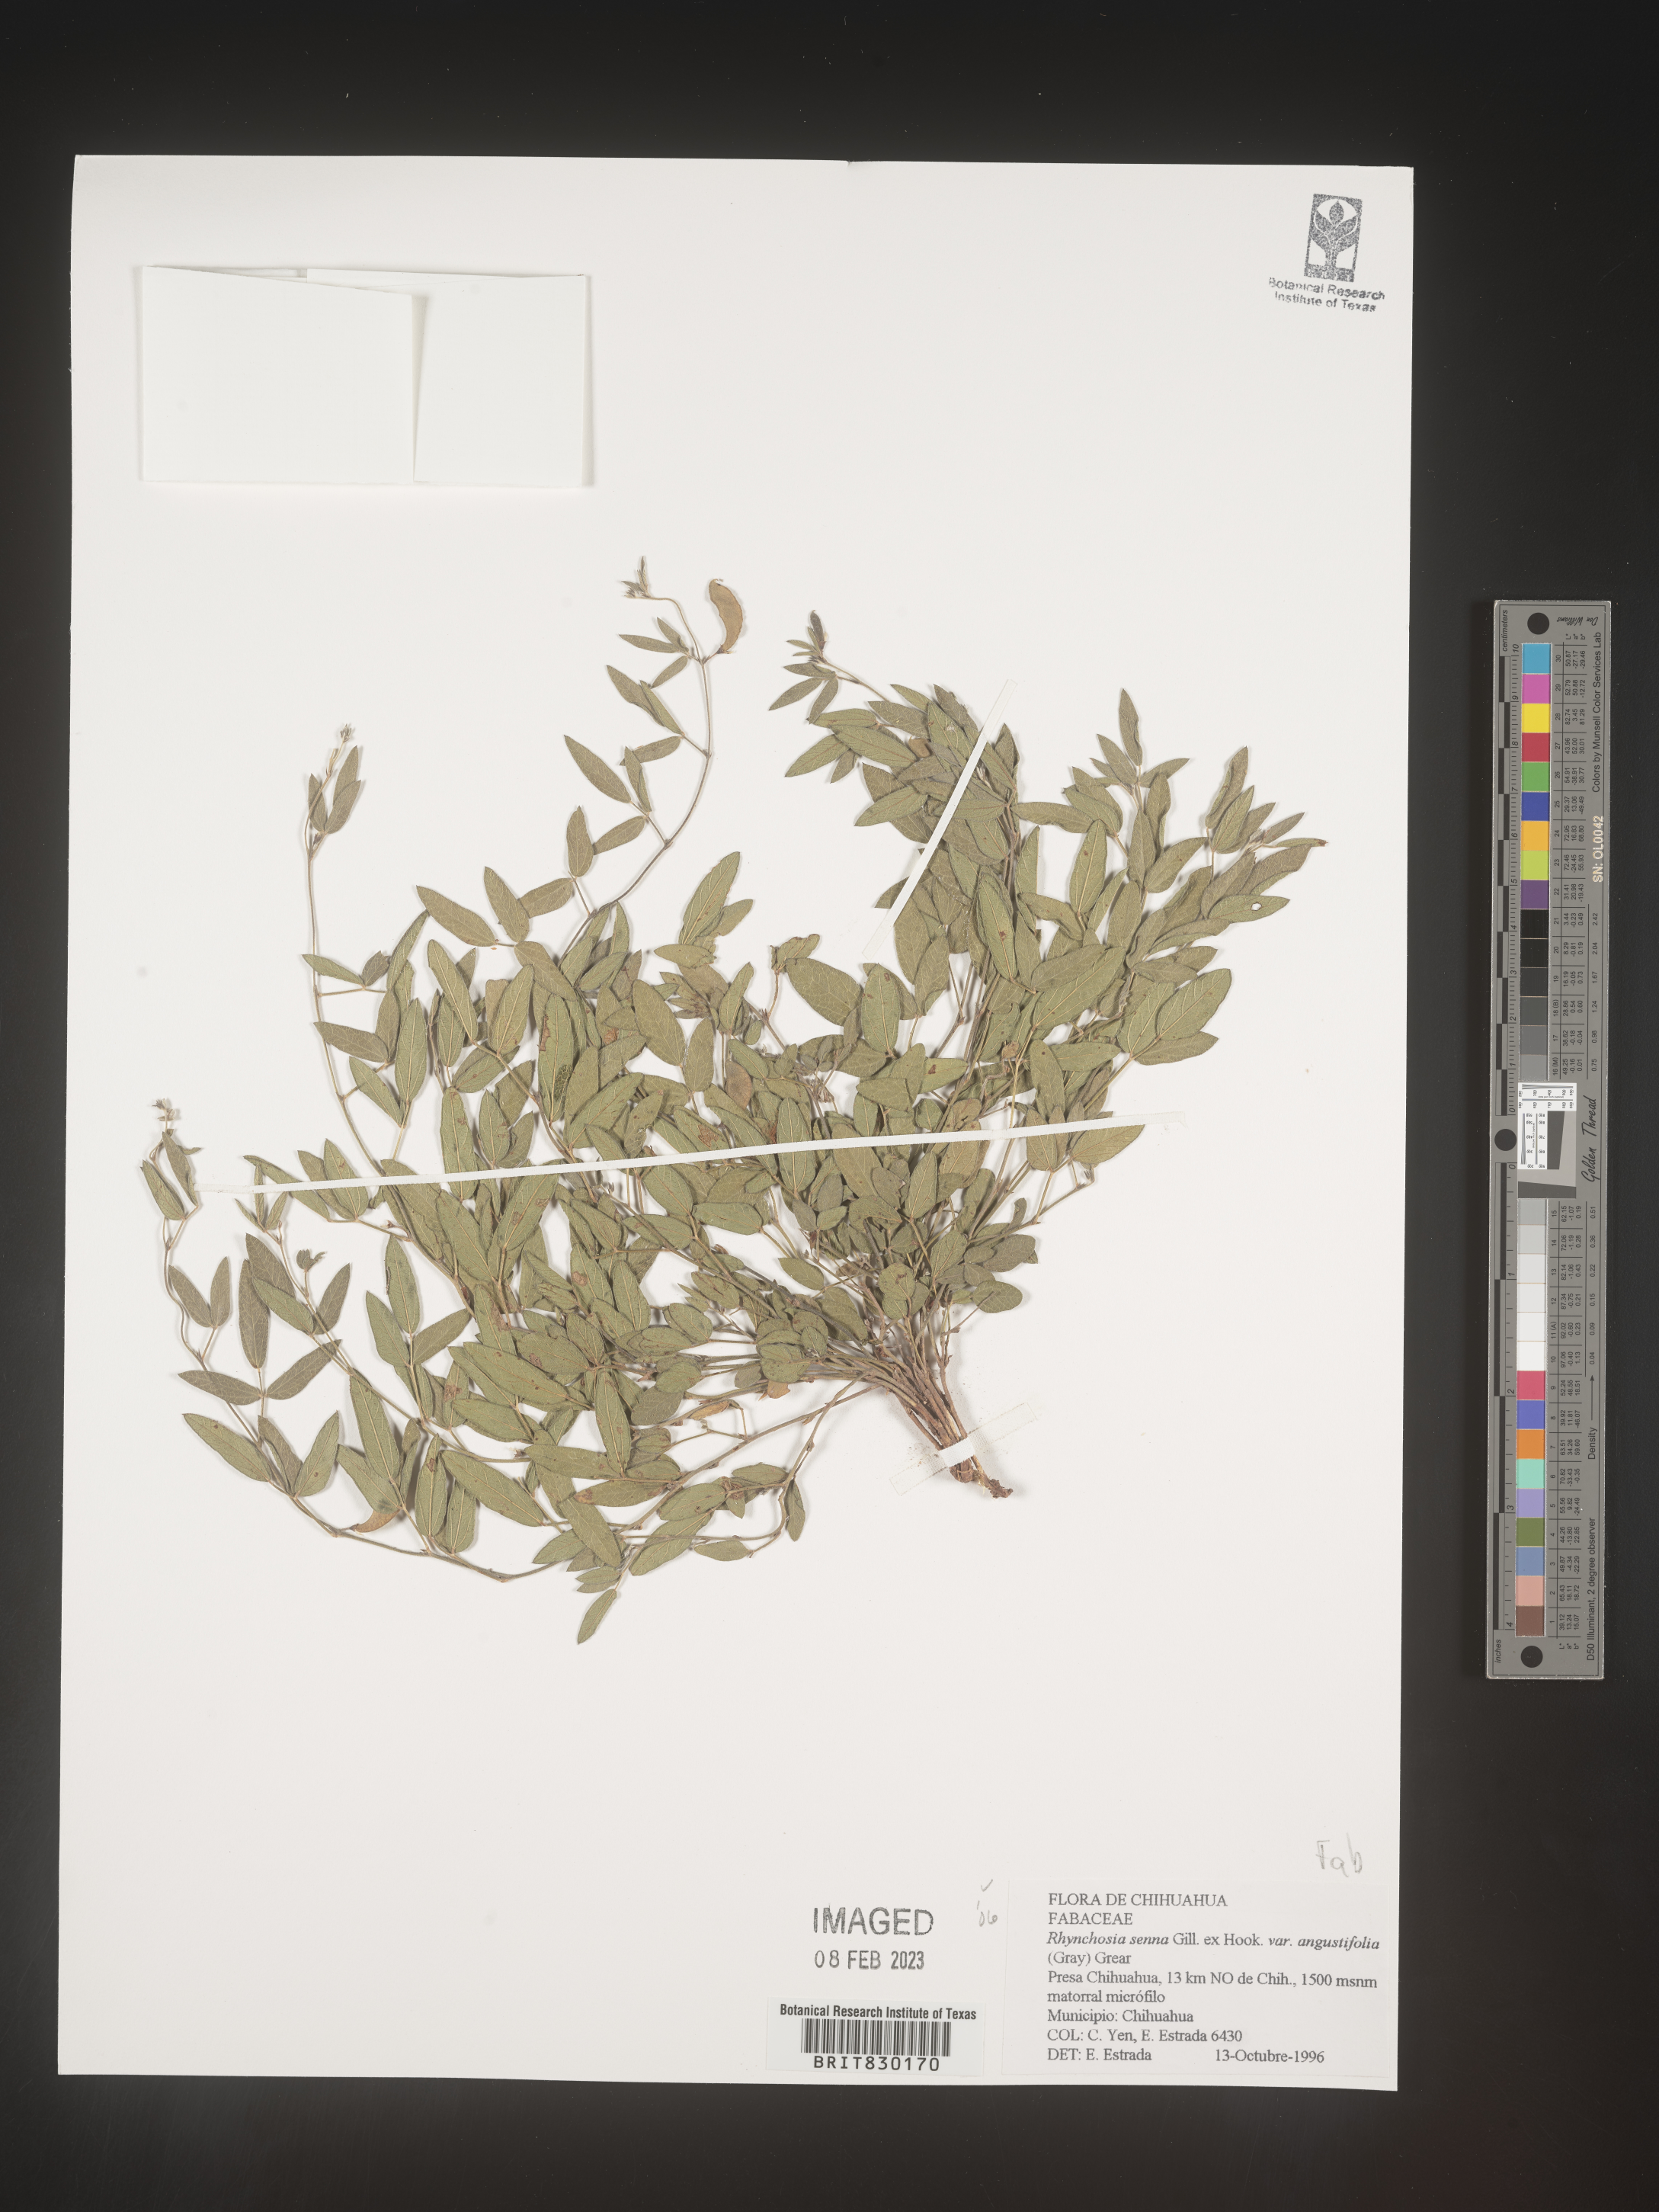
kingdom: Plantae
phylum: Tracheophyta
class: Magnoliopsida
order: Fabales
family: Fabaceae
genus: Rhynchosia
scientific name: Rhynchosia
